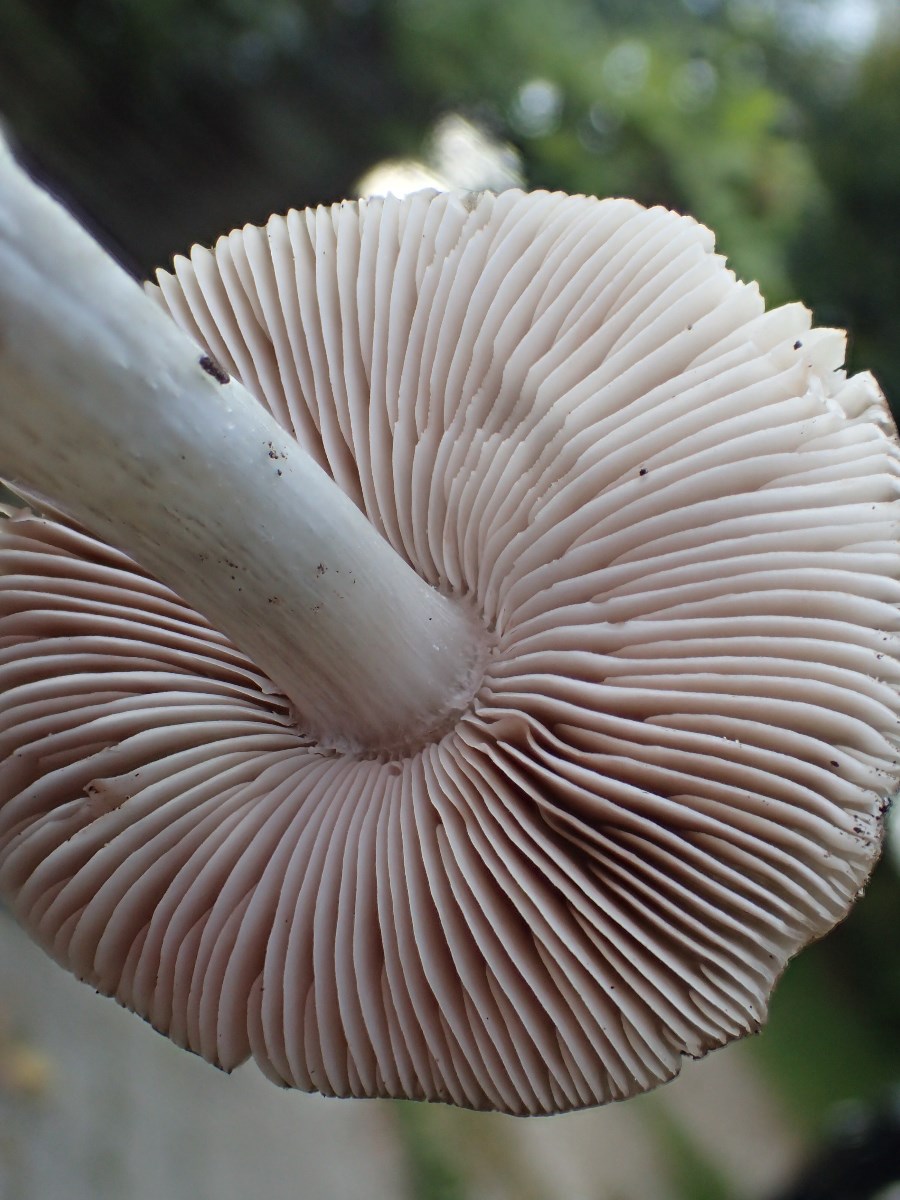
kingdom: Fungi
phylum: Basidiomycota
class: Agaricomycetes
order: Agaricales
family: Pluteaceae
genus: Pluteus
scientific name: Pluteus
